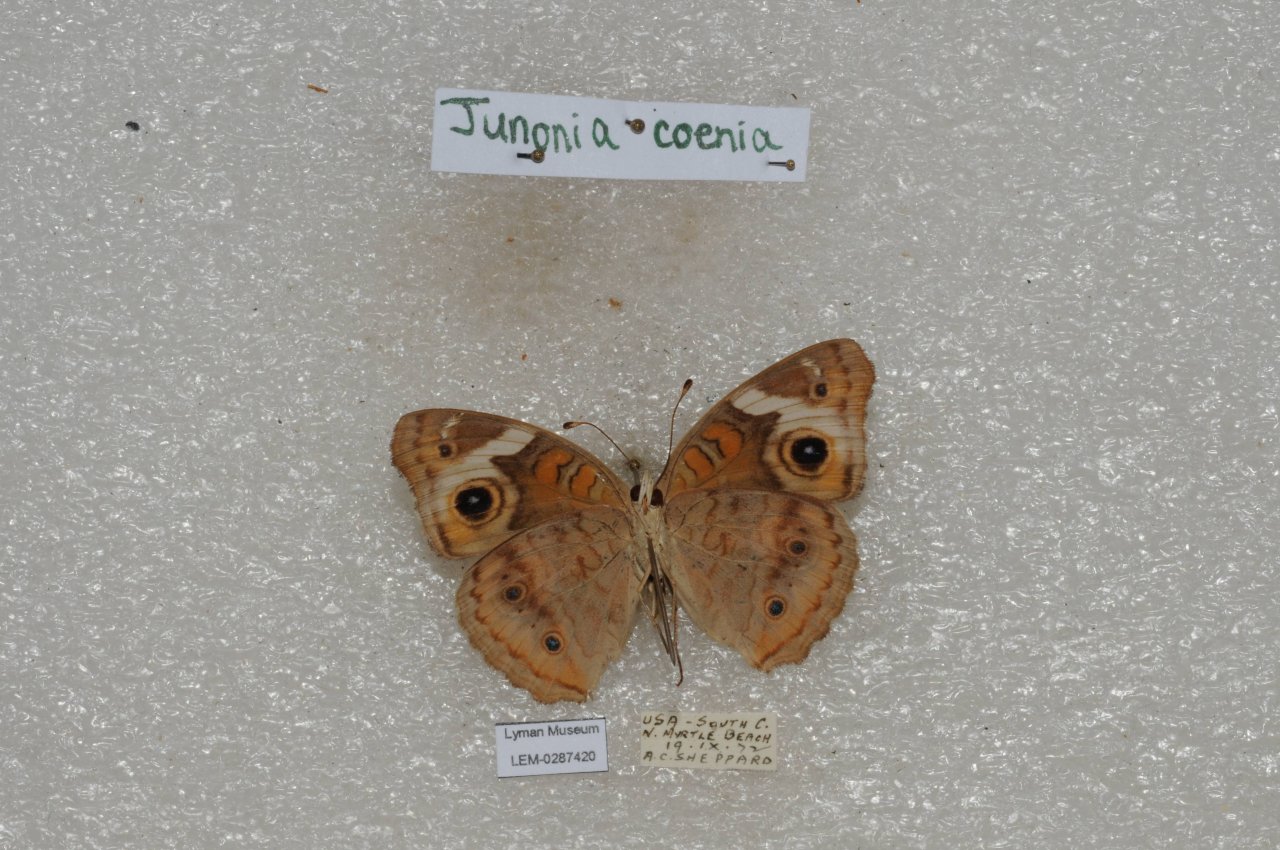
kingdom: Animalia
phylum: Arthropoda
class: Insecta
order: Lepidoptera
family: Nymphalidae
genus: Junonia
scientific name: Junonia coenia
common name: Common Buckeye
